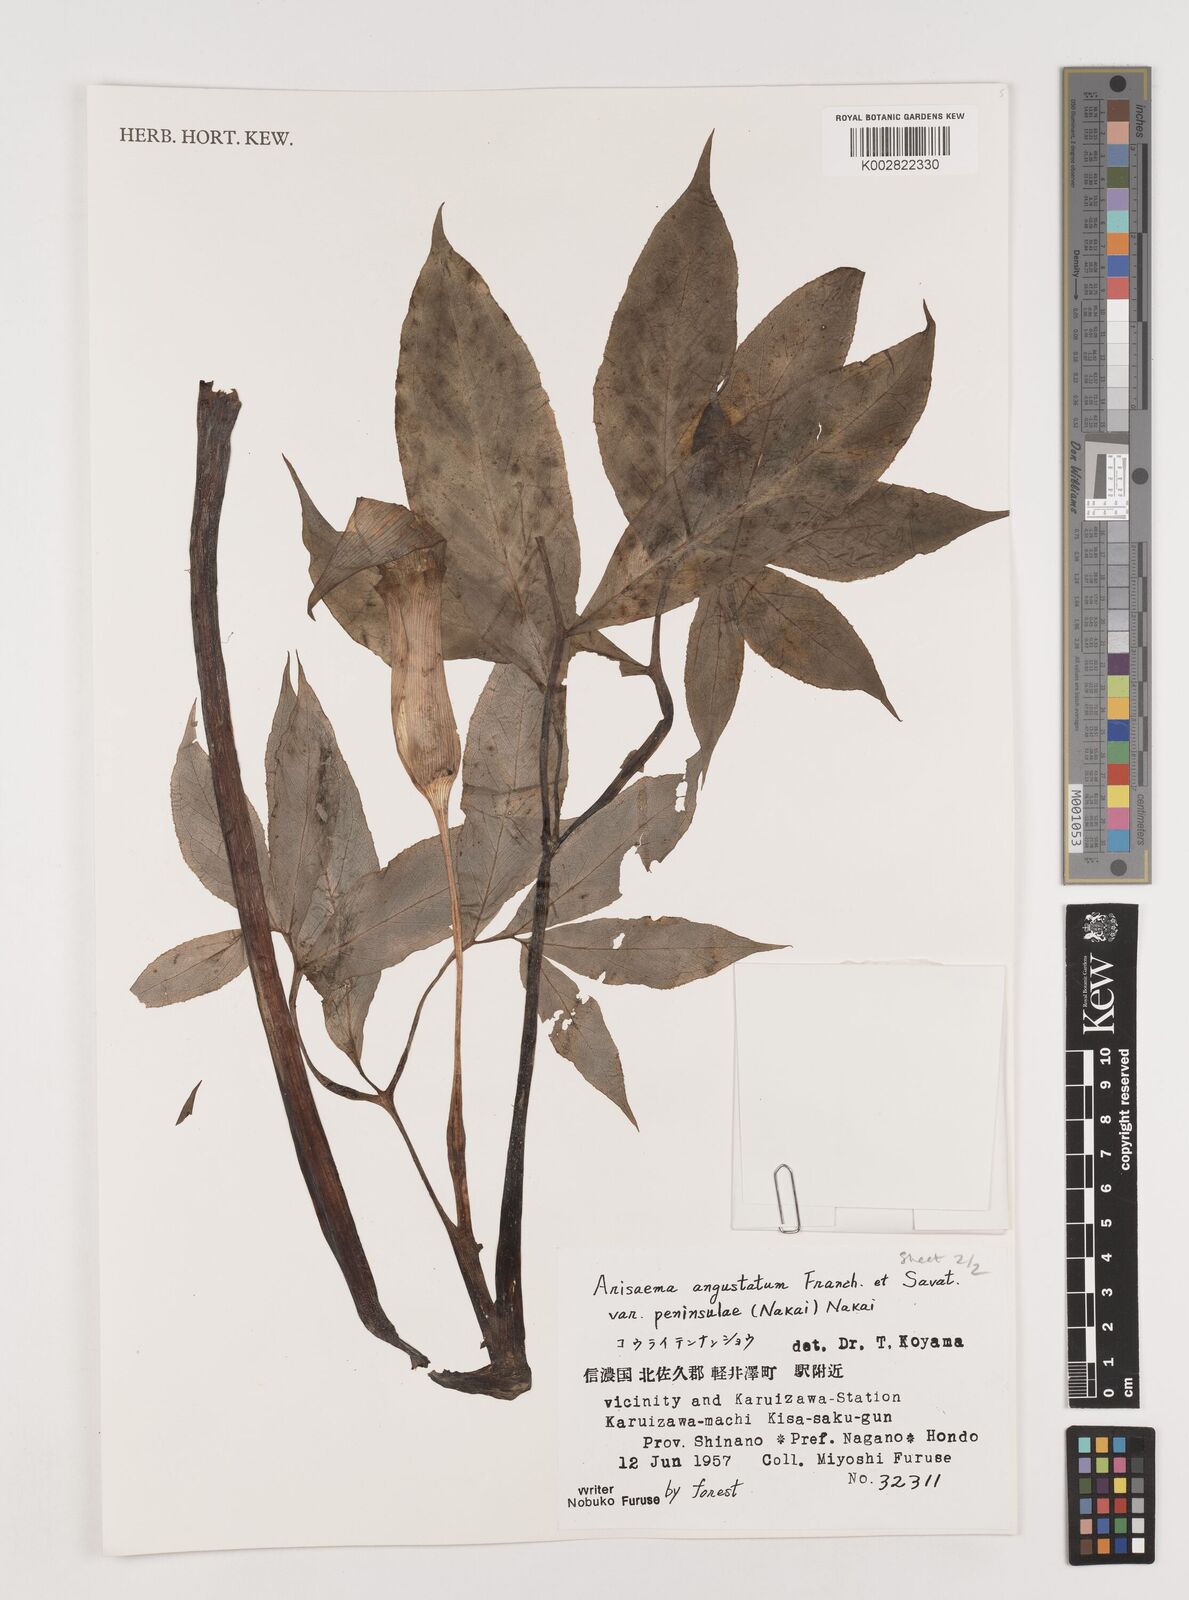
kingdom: Plantae
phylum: Tracheophyta
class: Liliopsida
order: Alismatales
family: Araceae
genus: Arisaema
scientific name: Arisaema angustatum
